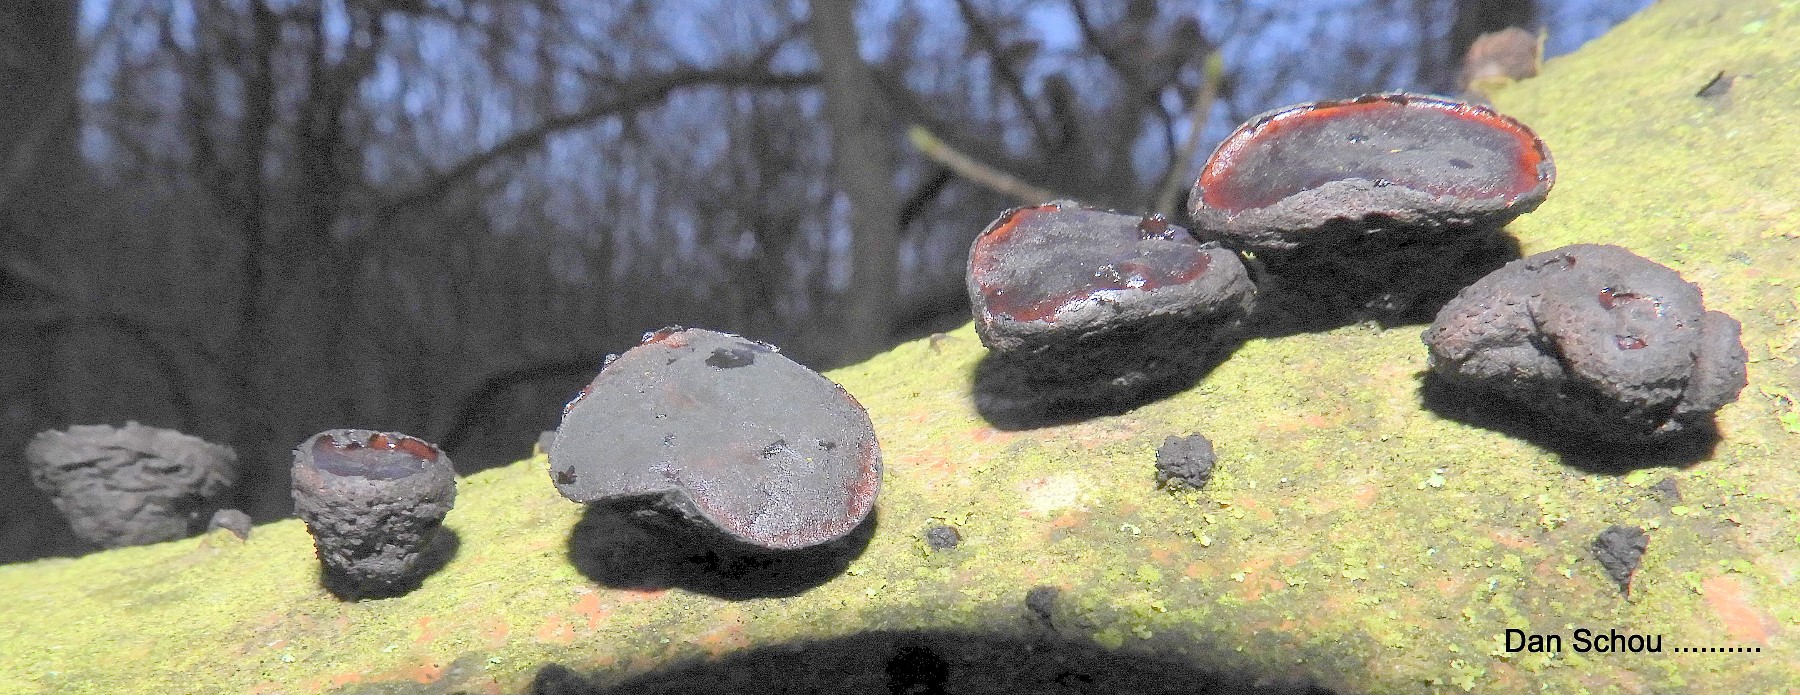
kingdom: Fungi
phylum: Ascomycota
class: Leotiomycetes
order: Phacidiales
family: Phacidiaceae
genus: Bulgaria
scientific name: Bulgaria inquinans
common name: afsmittende topsvamp
